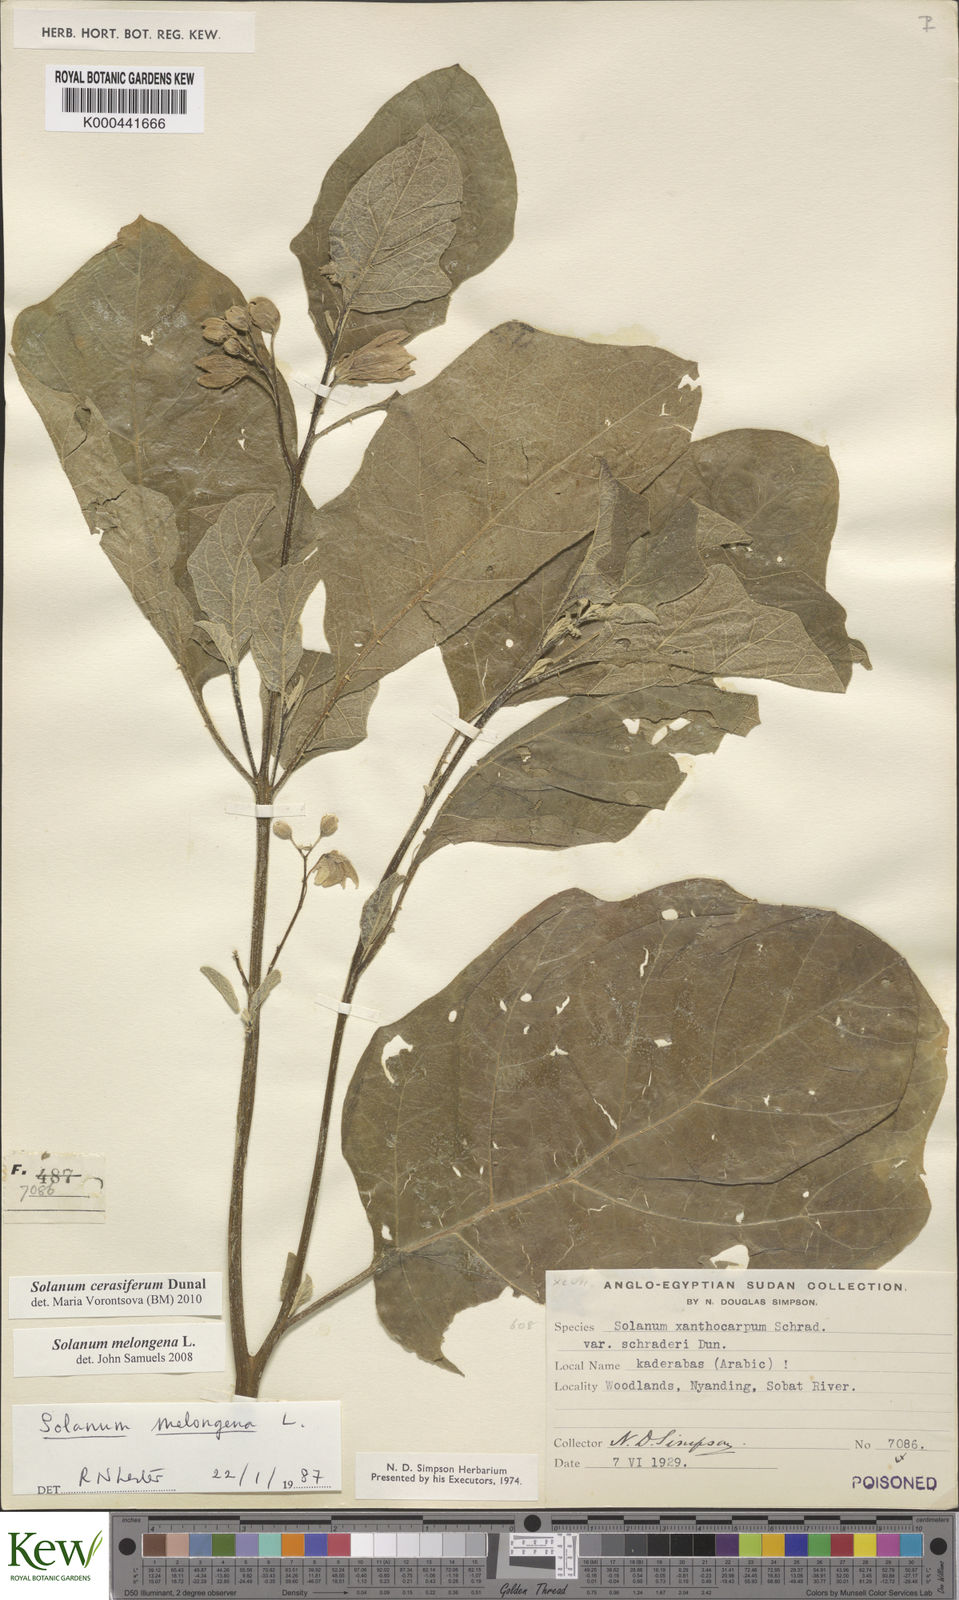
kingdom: Plantae
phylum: Tracheophyta
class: Magnoliopsida
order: Solanales
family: Solanaceae
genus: Solanum
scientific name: Solanum cerasiferum
